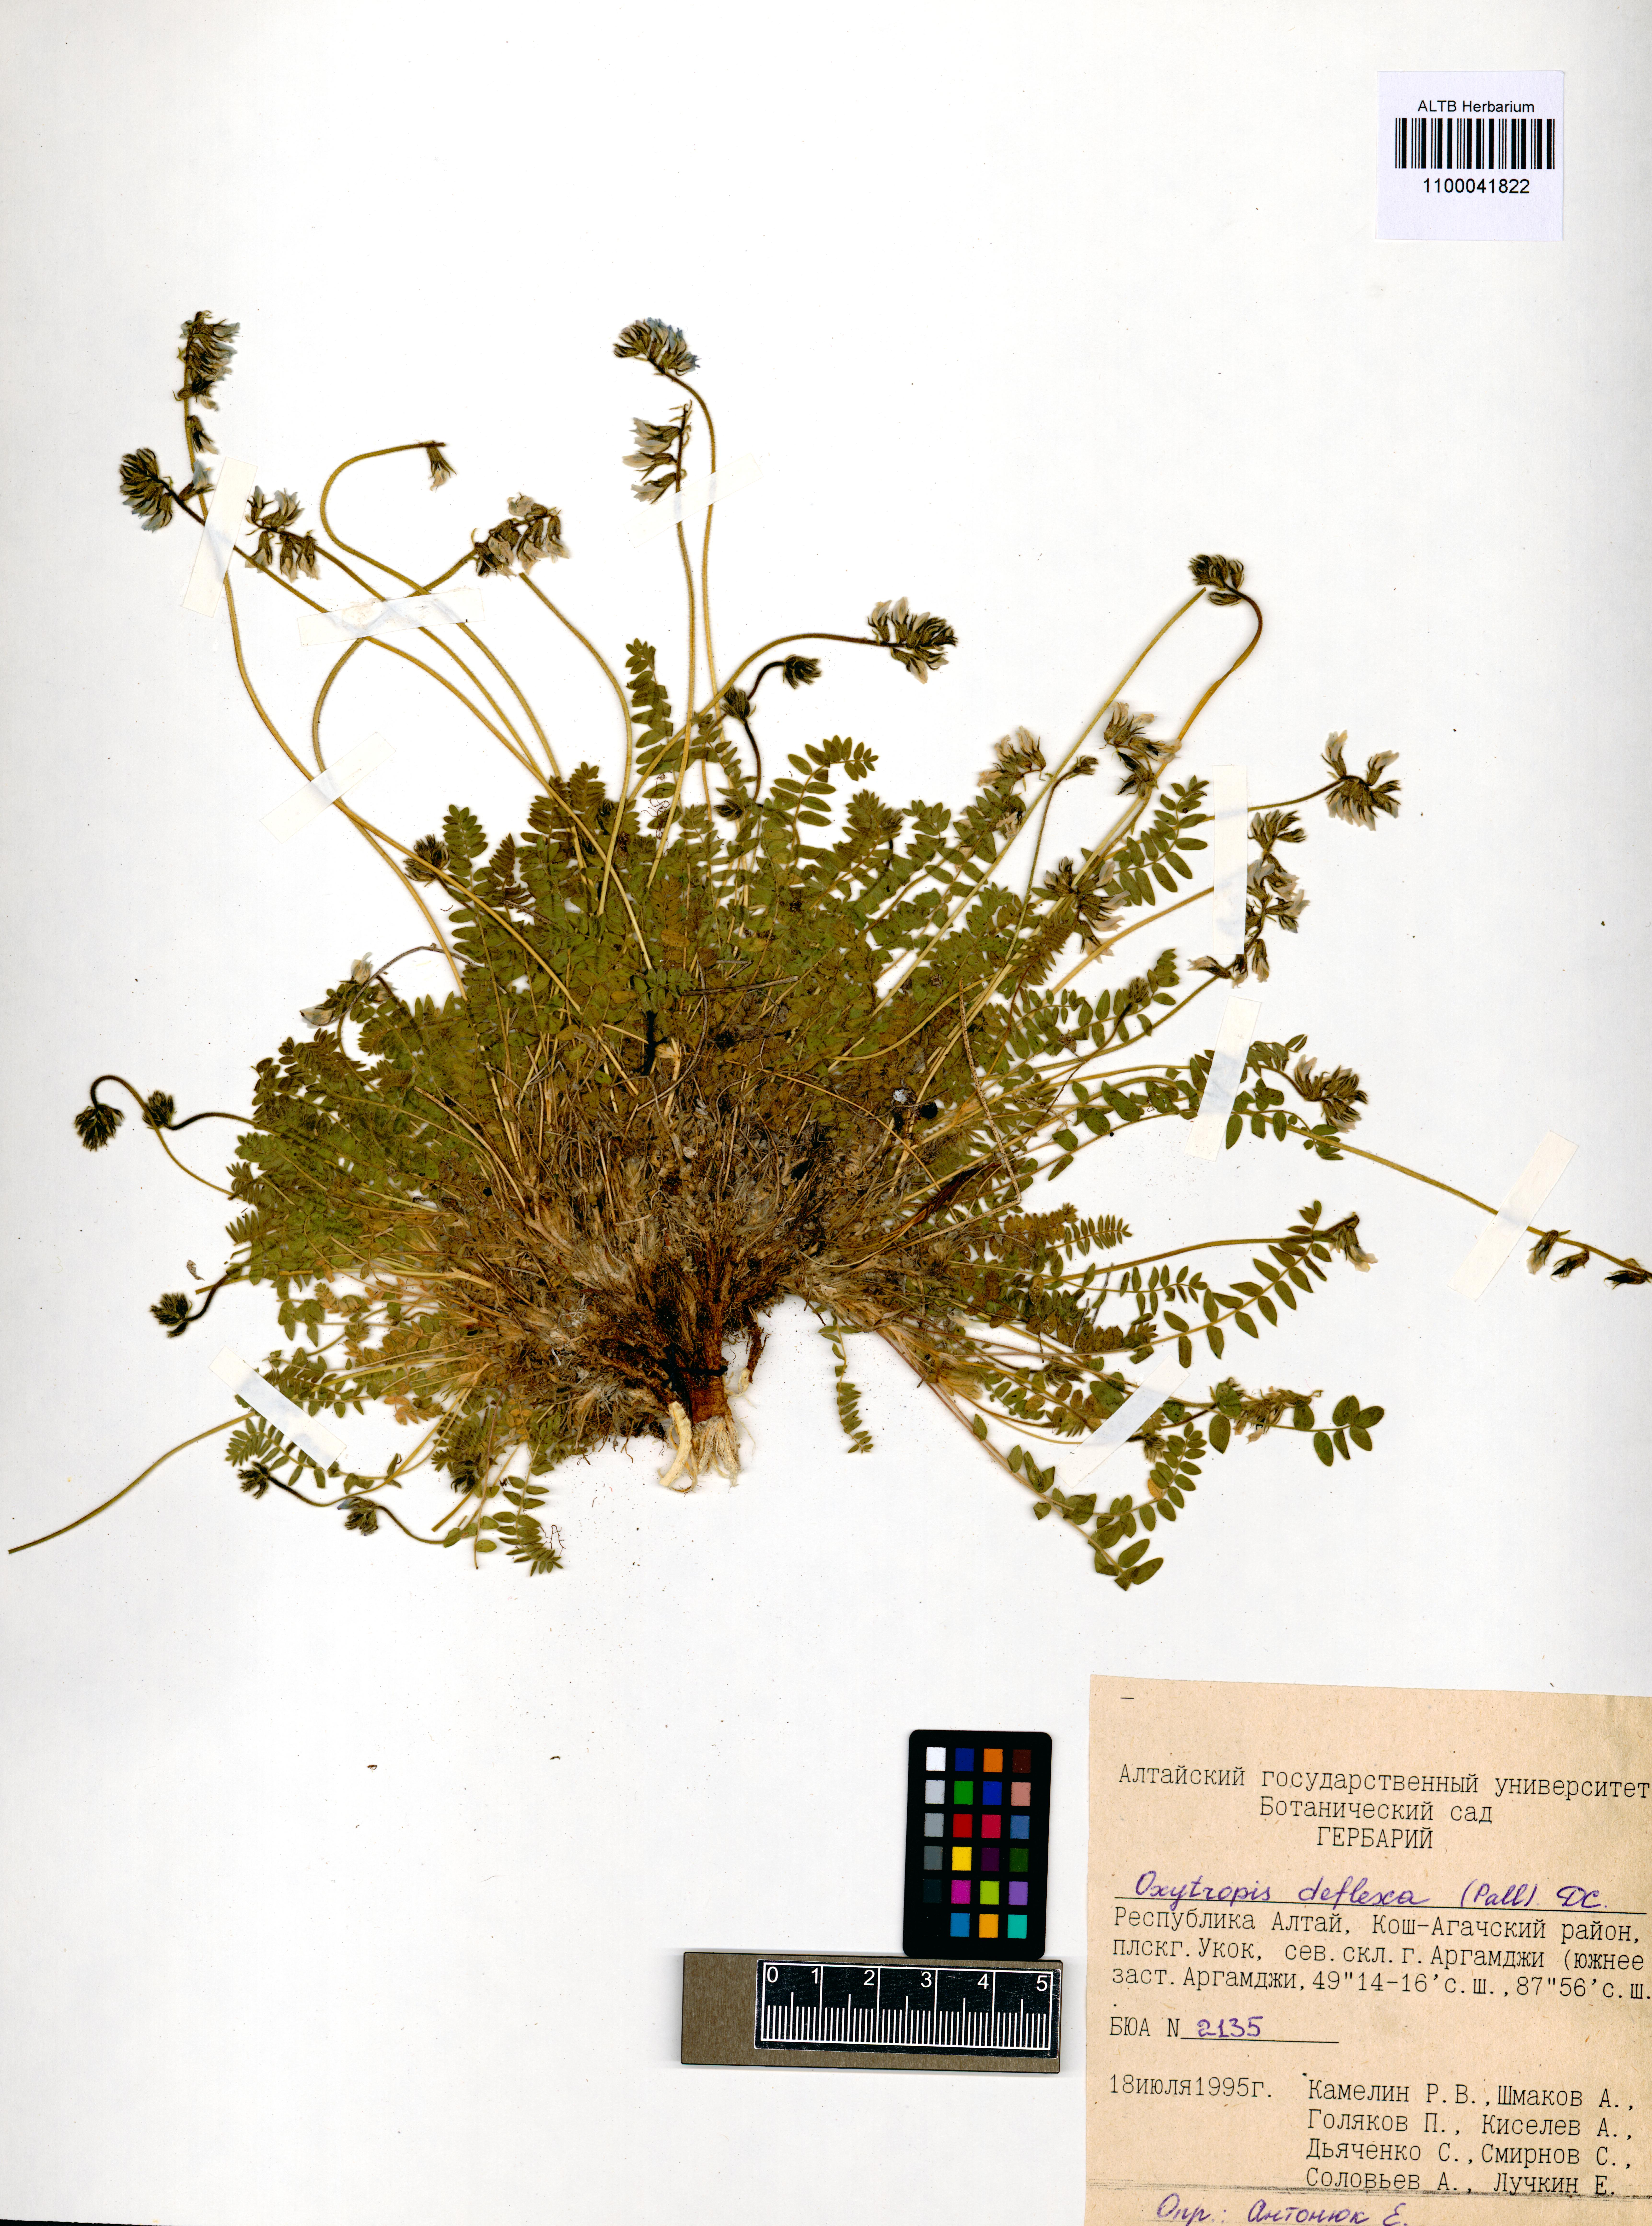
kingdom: Plantae
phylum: Tracheophyta
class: Magnoliopsida
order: Fabales
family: Fabaceae
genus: Oxytropis
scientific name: Oxytropis deflexa
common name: Stemmed oxytrope
